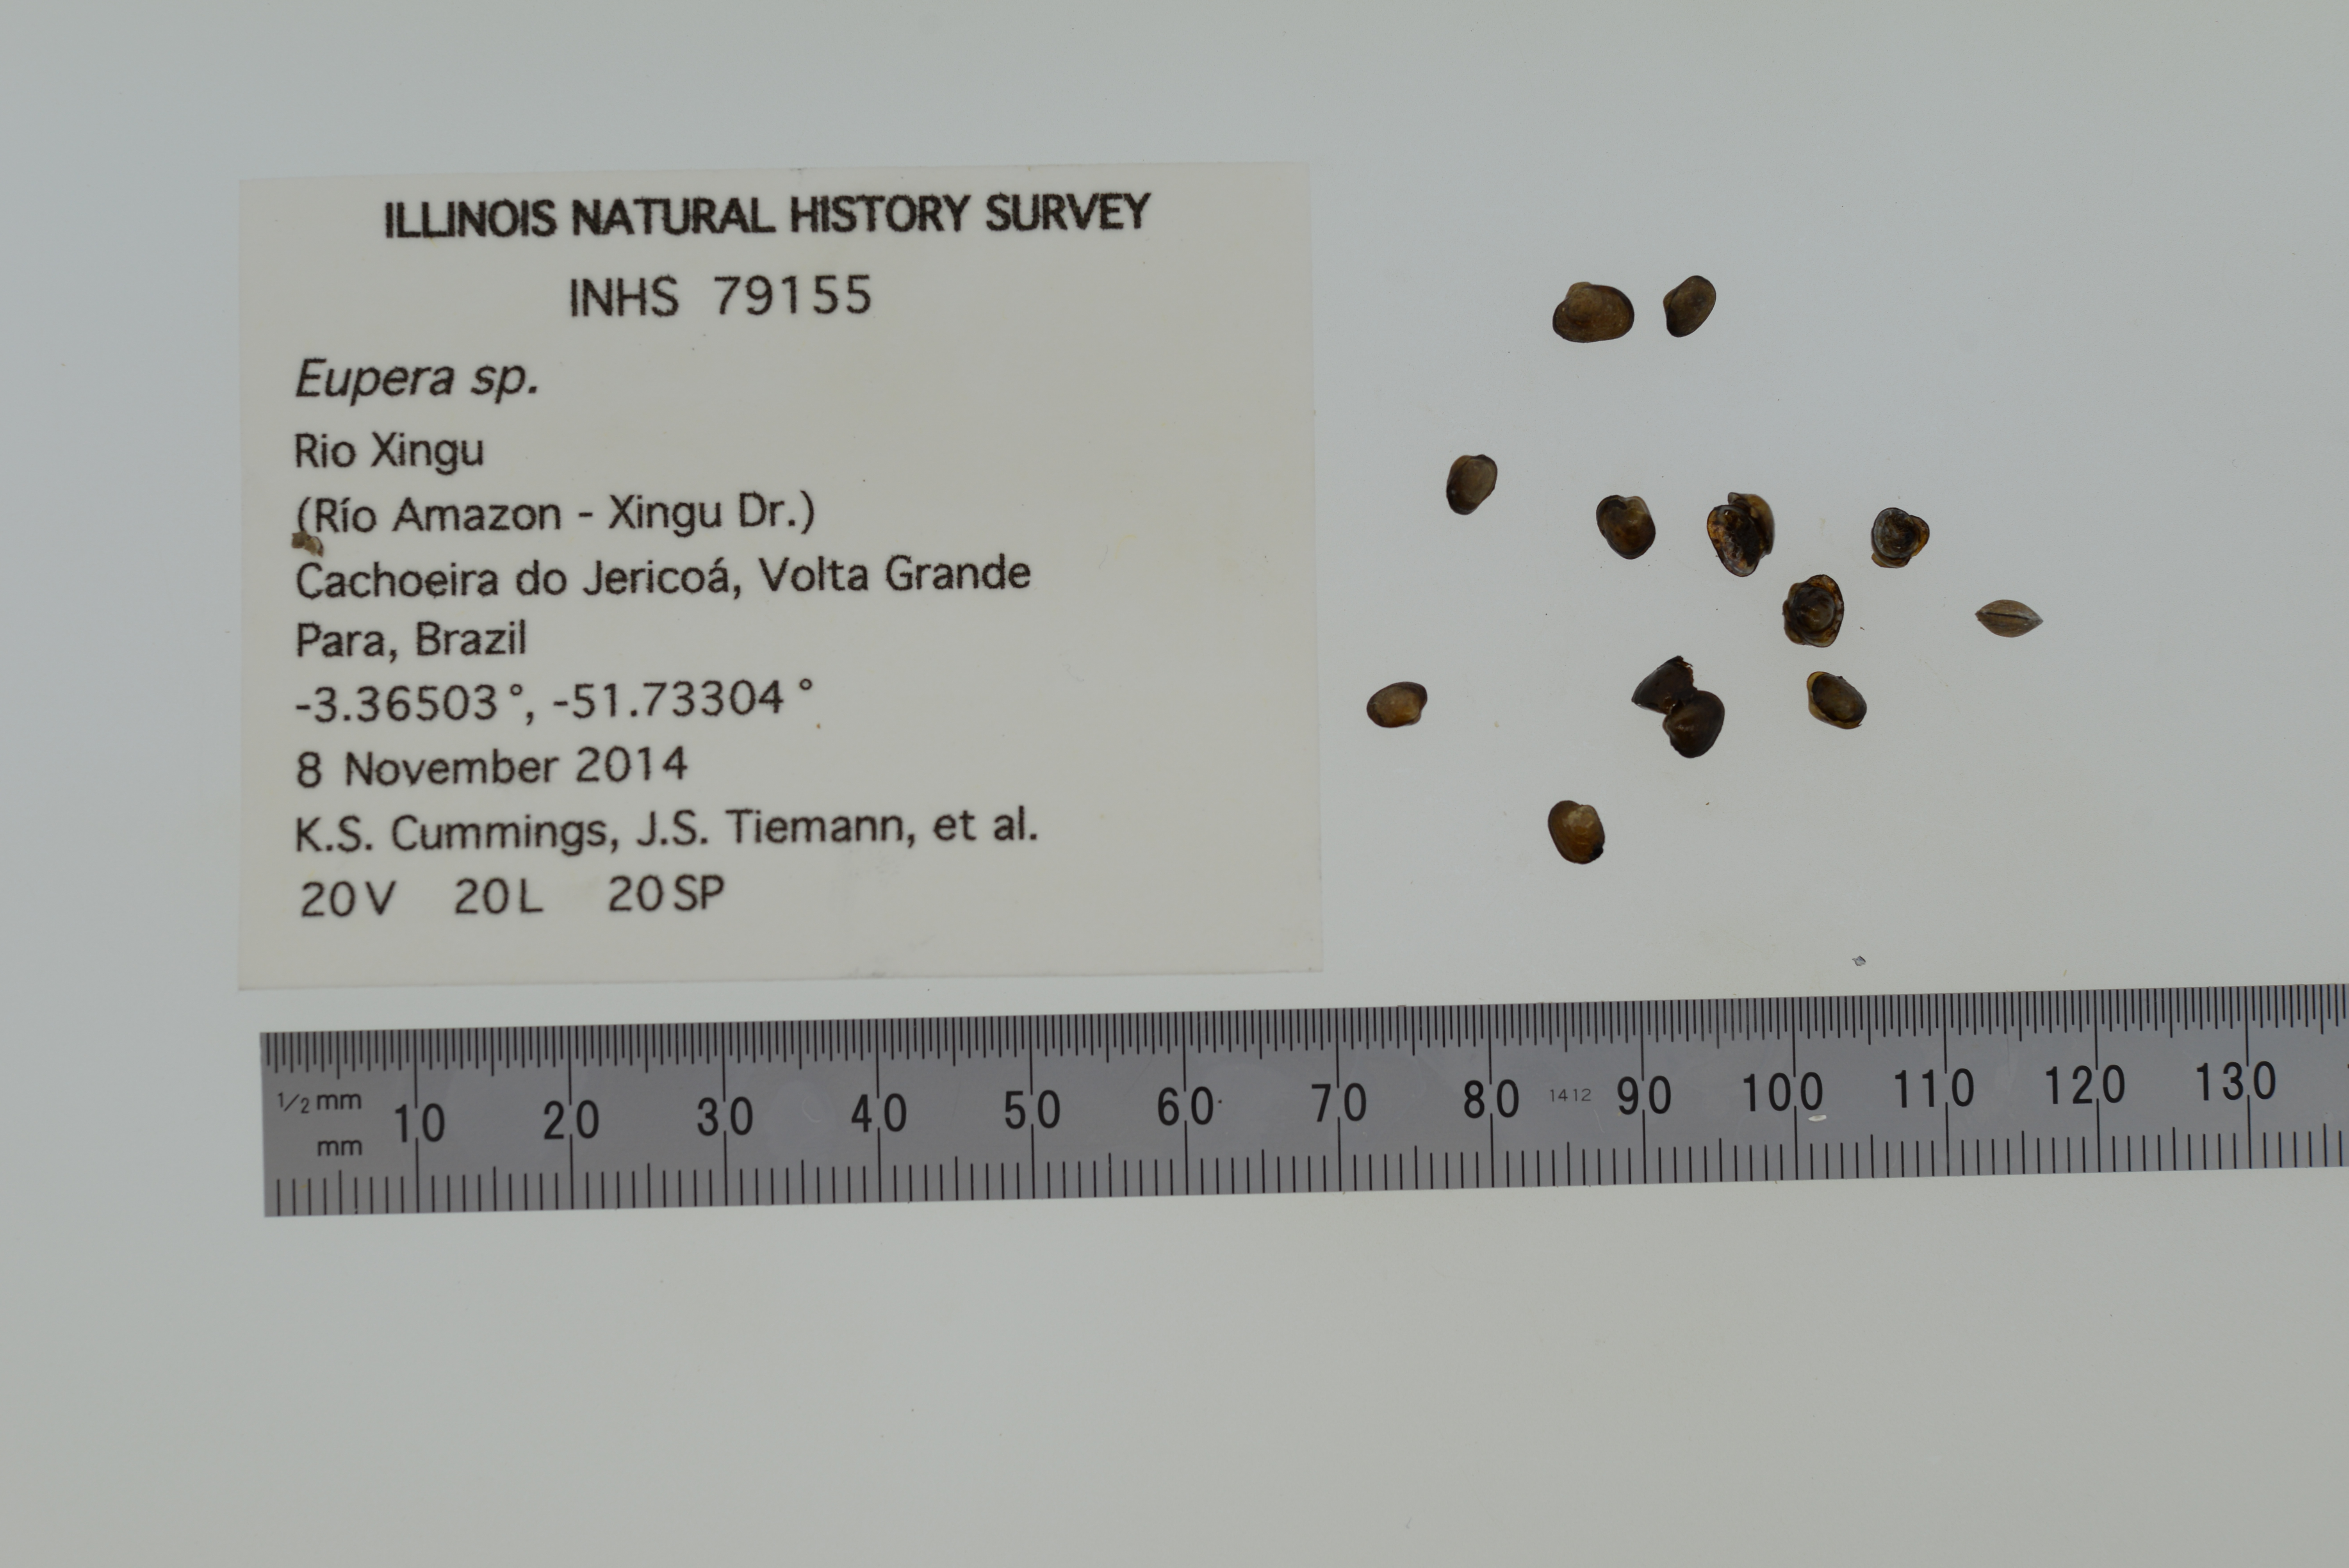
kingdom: Animalia
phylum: Mollusca
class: Bivalvia
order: Sphaeriida
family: Sphaeriidae
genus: Eupera
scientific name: Eupera
